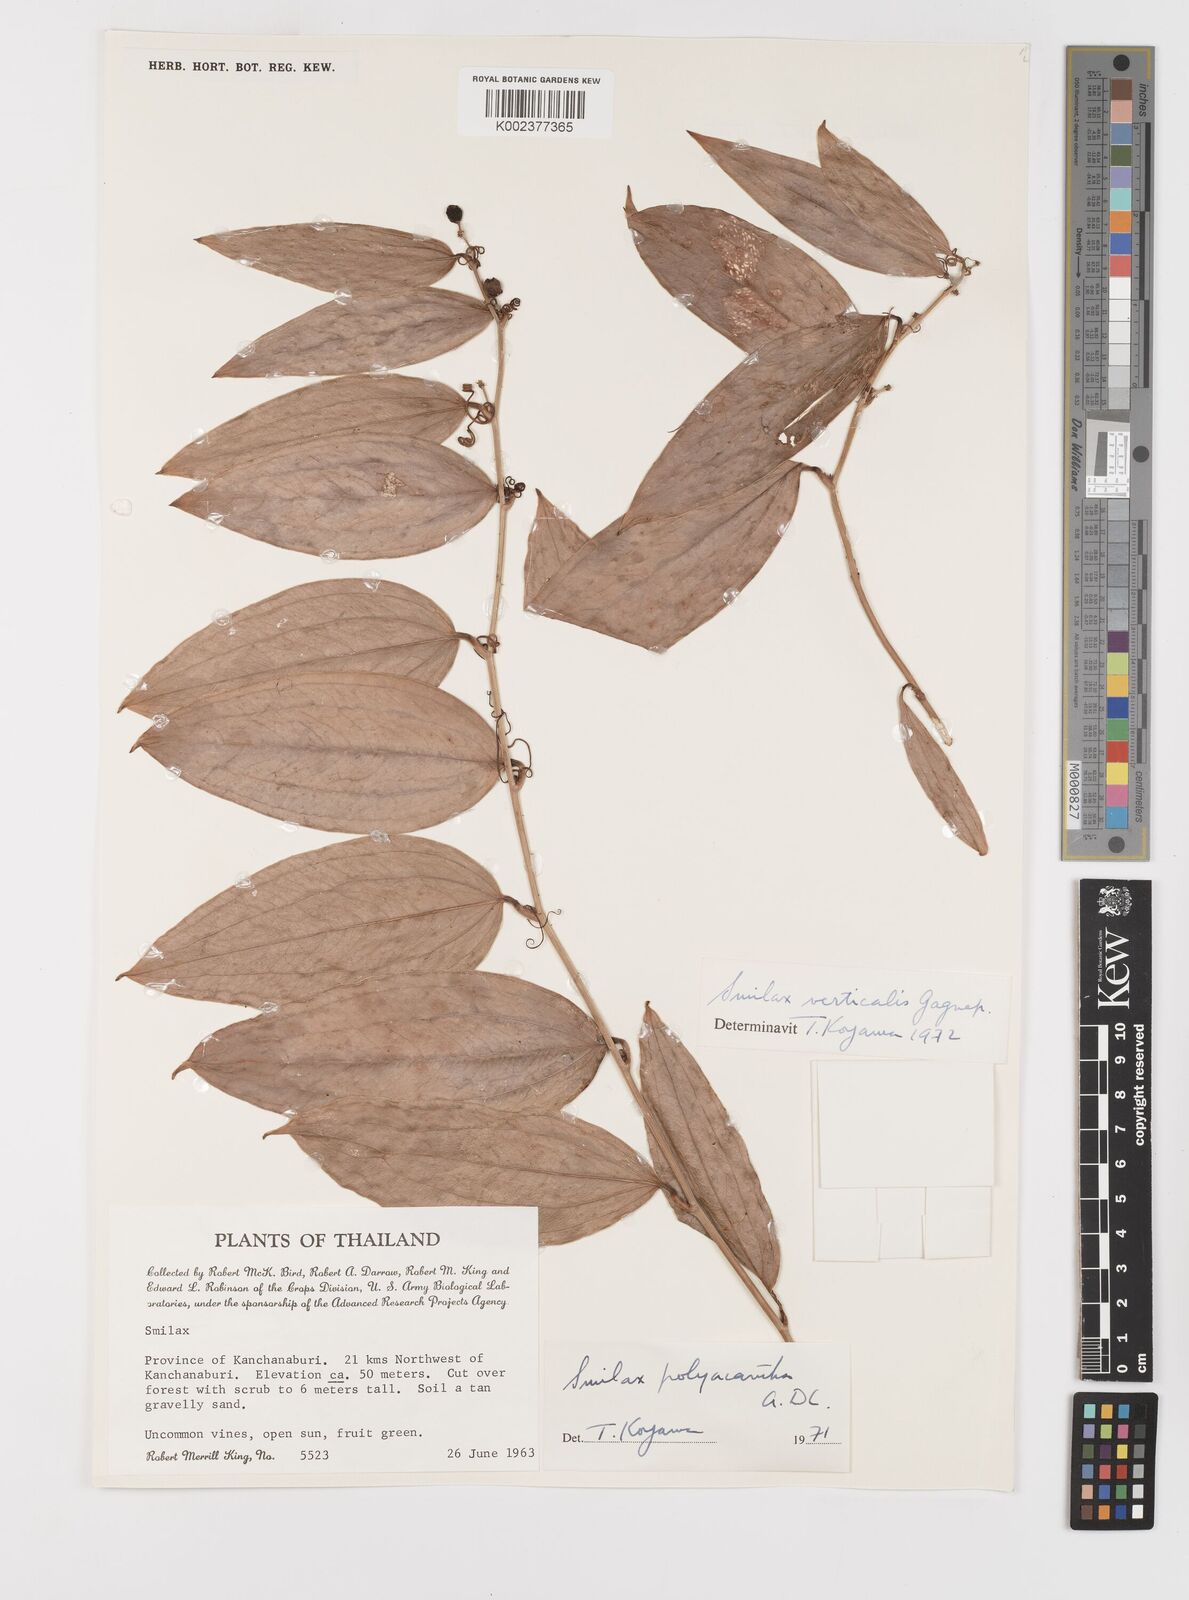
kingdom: Plantae
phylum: Tracheophyta
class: Liliopsida
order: Liliales
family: Smilacaceae
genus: Smilax
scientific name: Smilax verticalis
